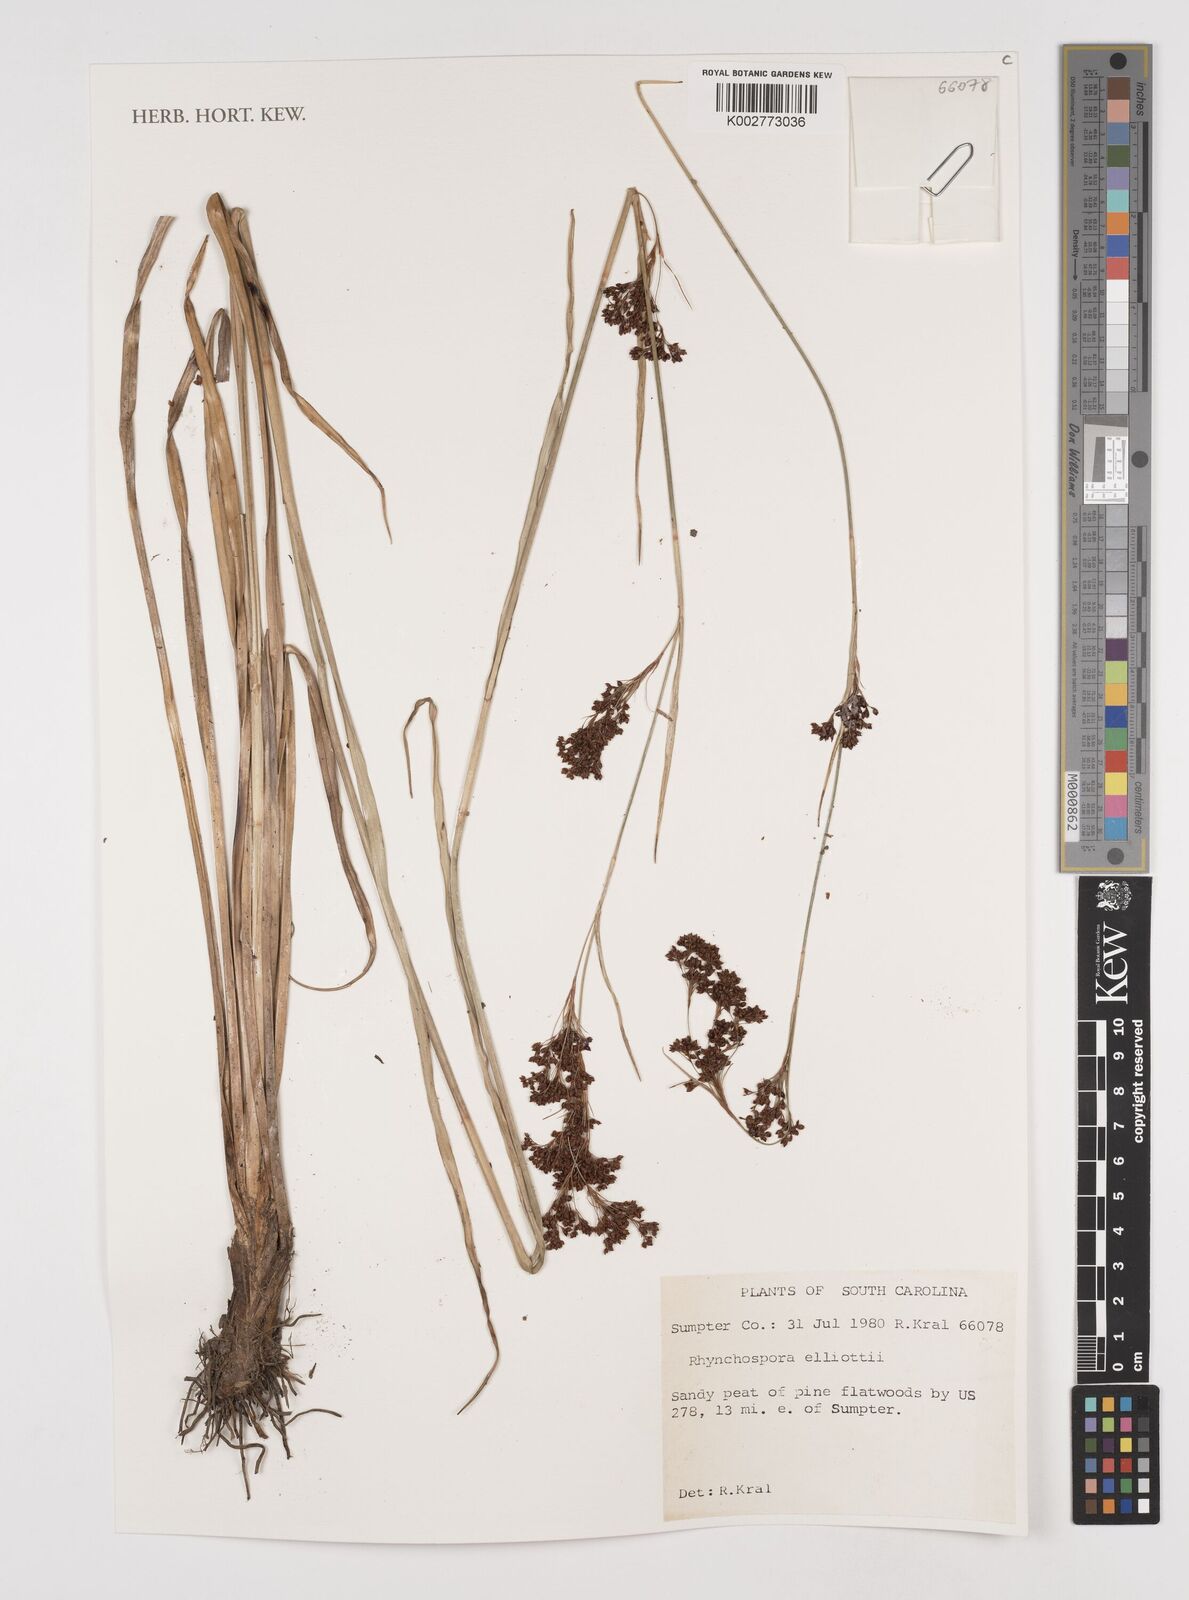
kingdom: Plantae
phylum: Tracheophyta
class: Liliopsida
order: Poales
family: Cyperaceae
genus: Rhynchospora
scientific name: Rhynchospora elliottii
